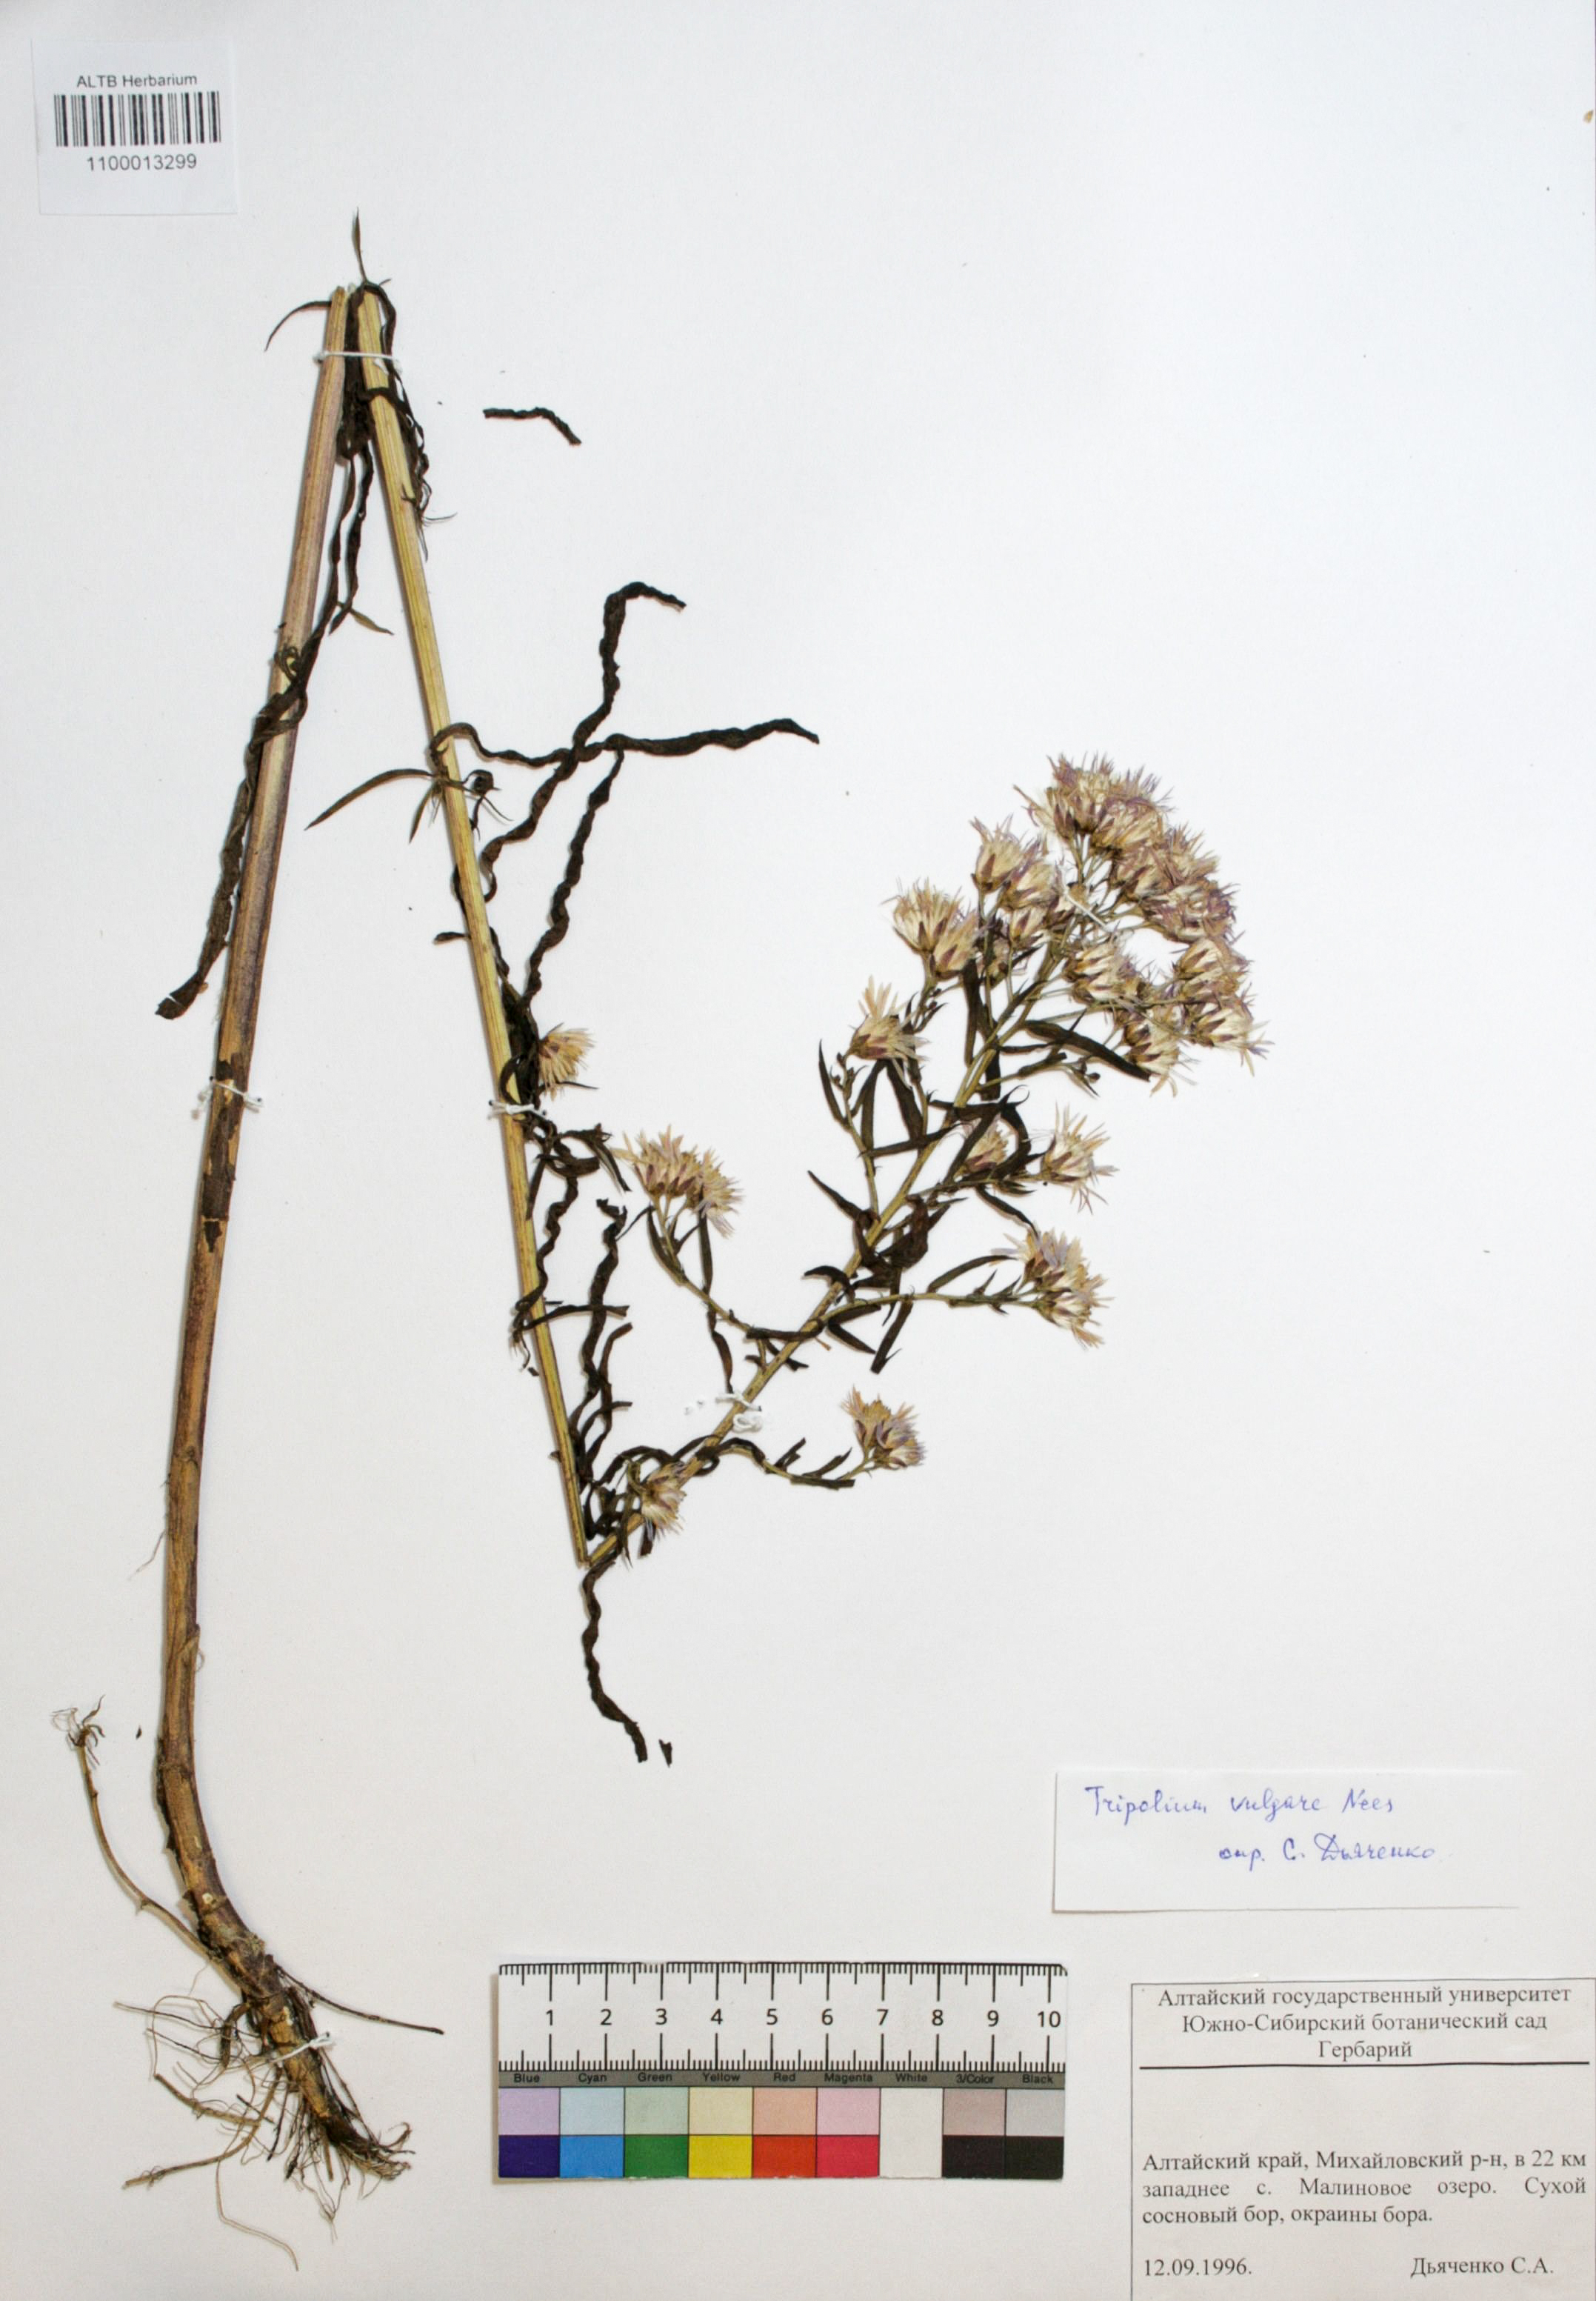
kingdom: Plantae
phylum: Tracheophyta
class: Magnoliopsida
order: Asterales
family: Asteraceae
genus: Tripolium
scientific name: Tripolium pannonicum
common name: Sea aster
